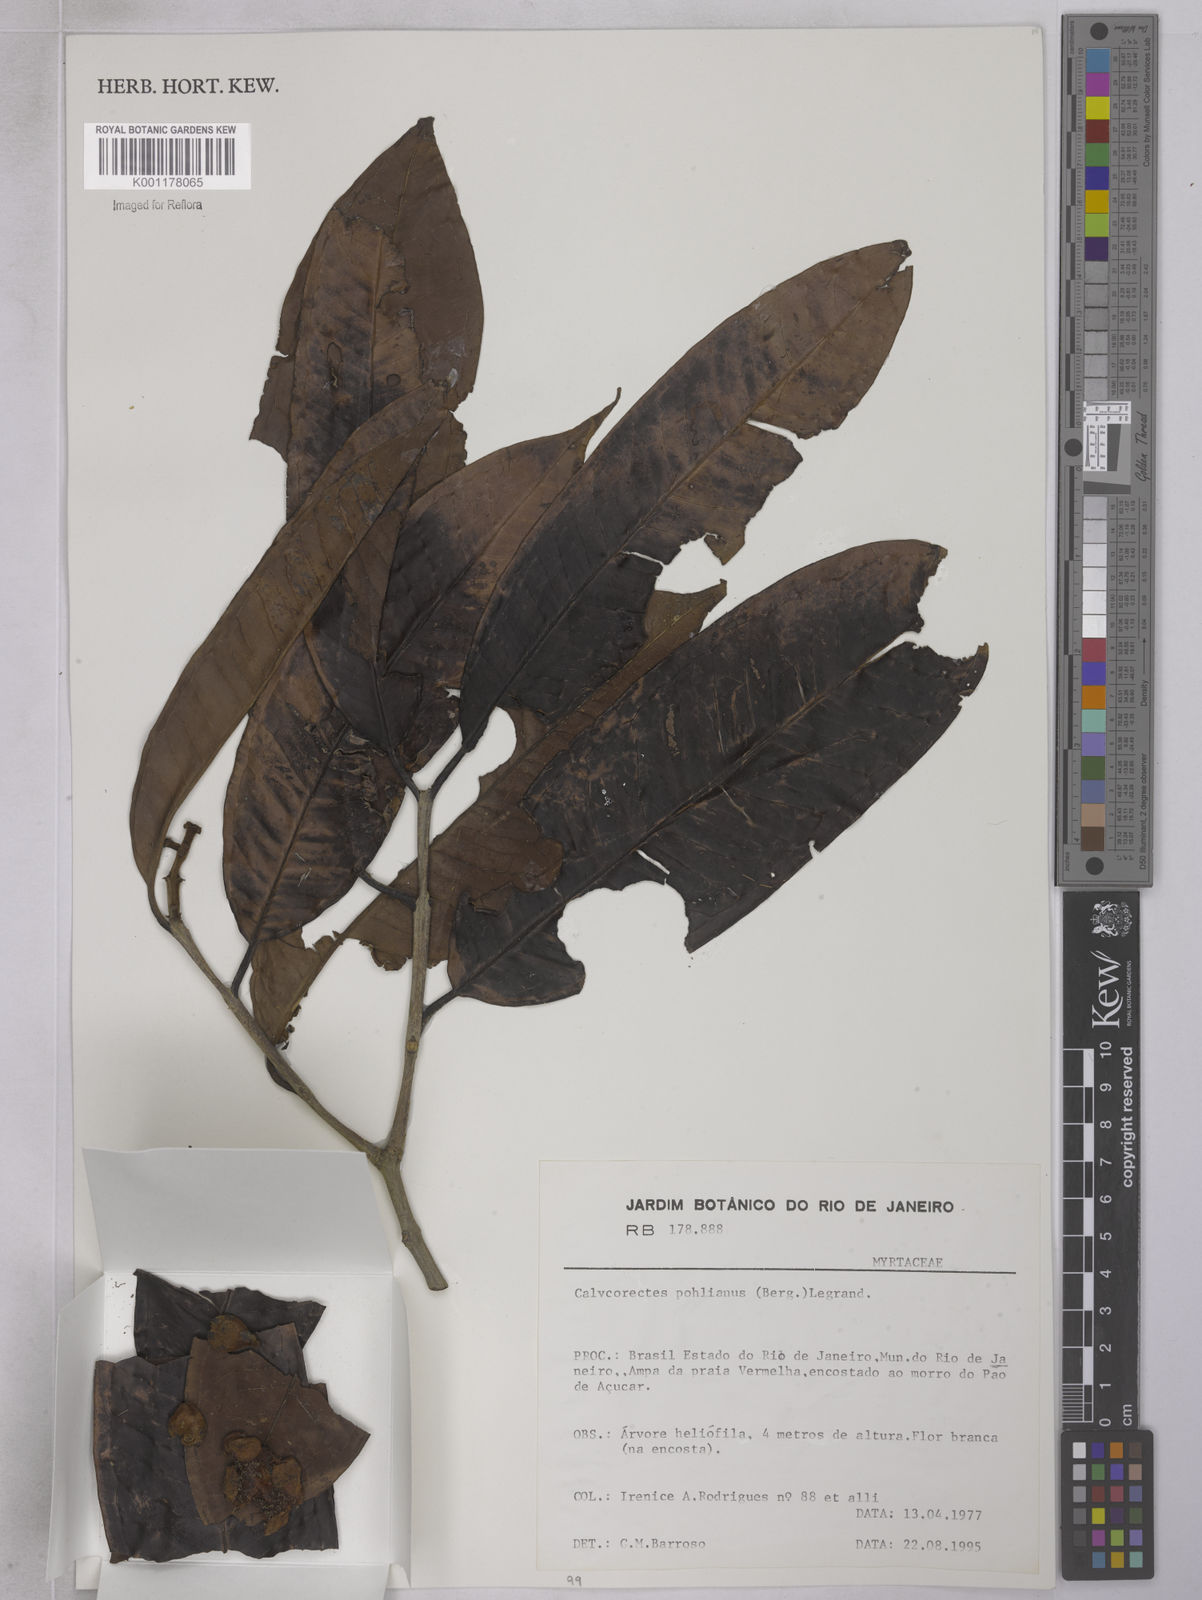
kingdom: Plantae
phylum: Tracheophyta
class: Magnoliopsida
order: Myrtales
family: Myrtaceae
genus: Eugenia
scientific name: Eugenia
